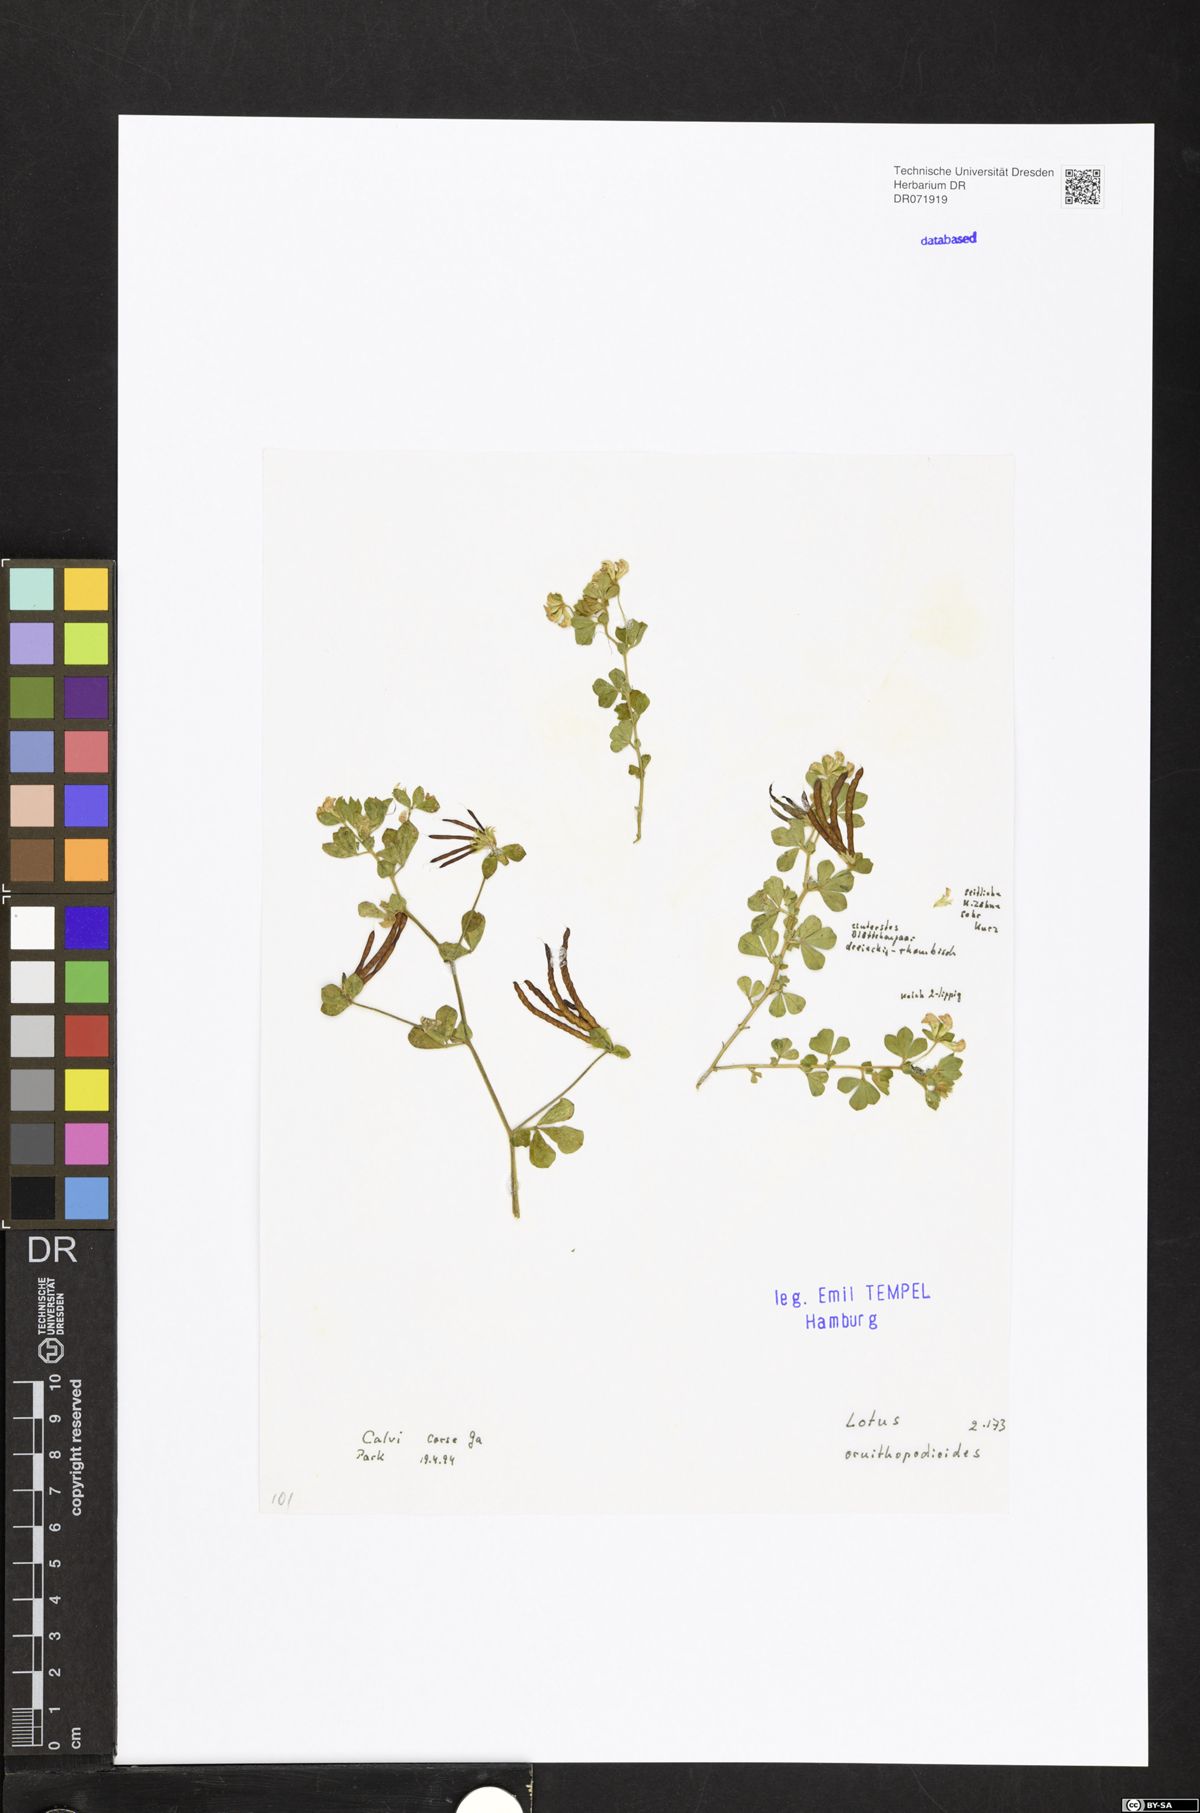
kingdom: Plantae
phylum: Tracheophyta
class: Magnoliopsida
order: Fabales
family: Fabaceae
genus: Lotus
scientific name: Lotus ornithopodioides
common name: Southern bird's-foot trefoil
